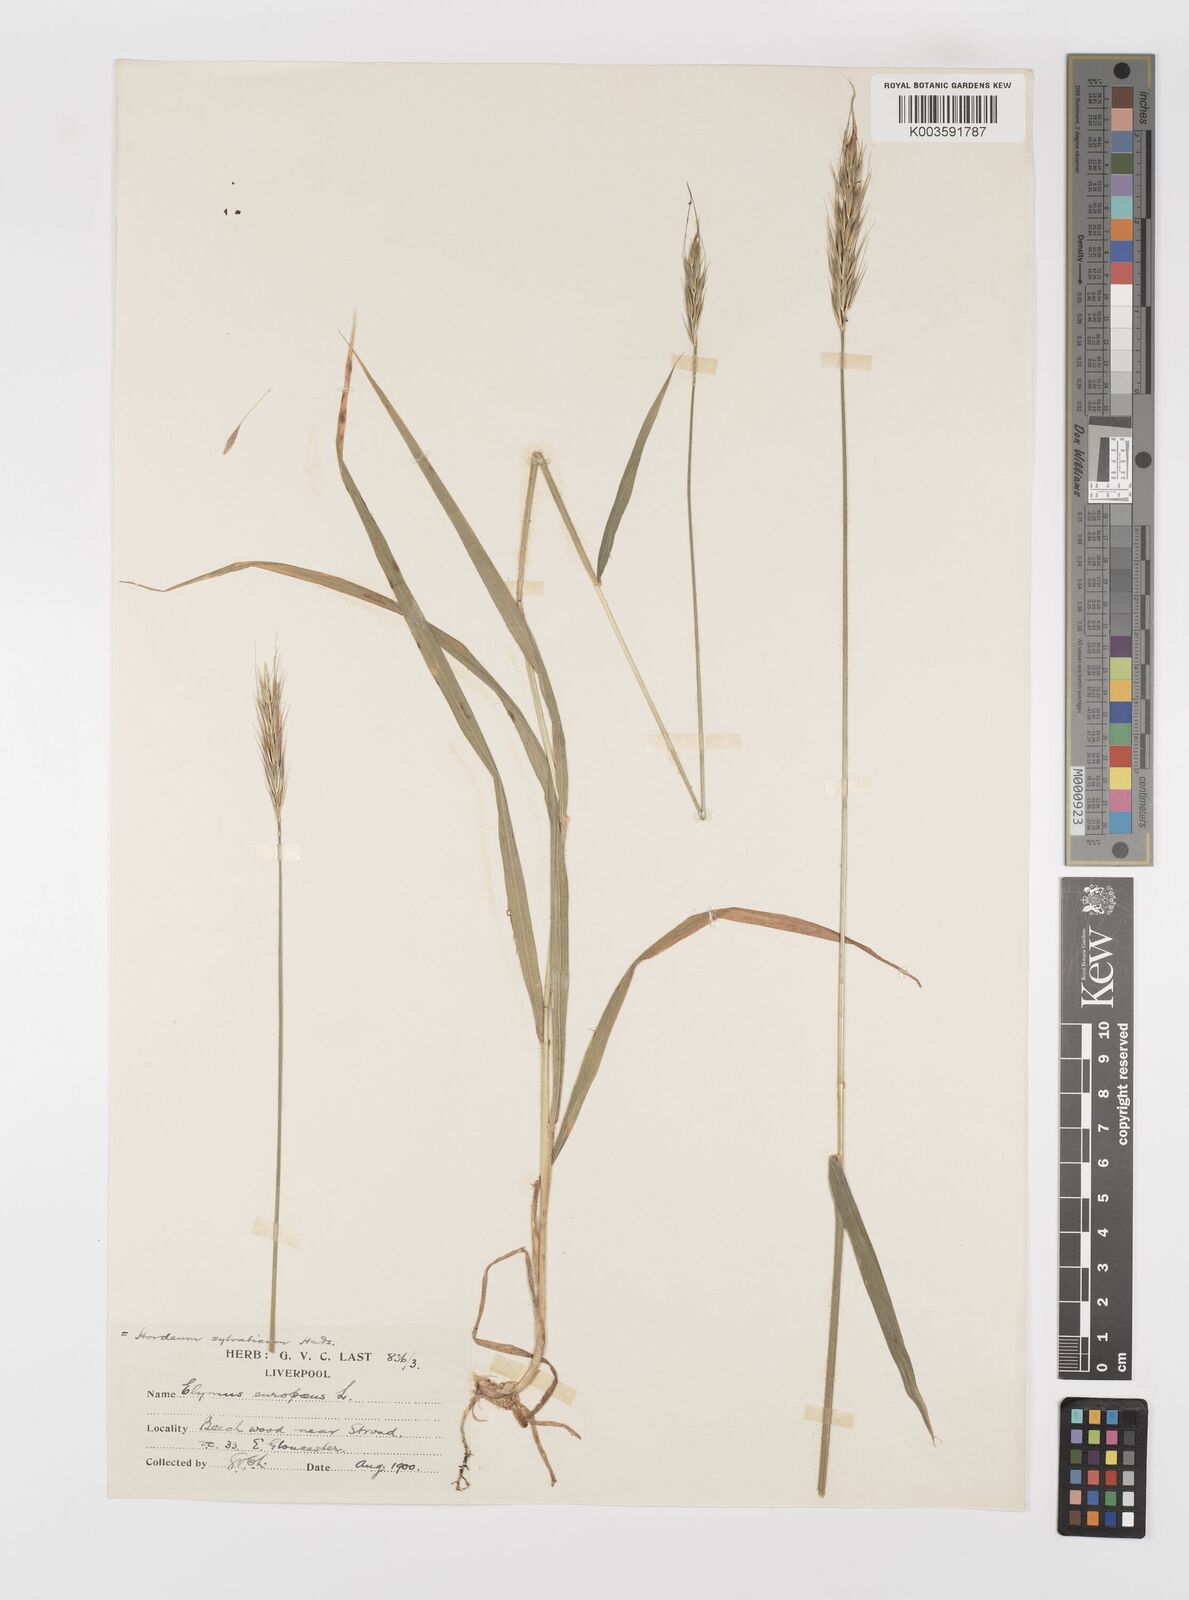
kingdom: Plantae
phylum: Tracheophyta
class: Liliopsida
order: Poales
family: Poaceae
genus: Hordelymus
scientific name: Hordelymus europaeus
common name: Wood-barley
